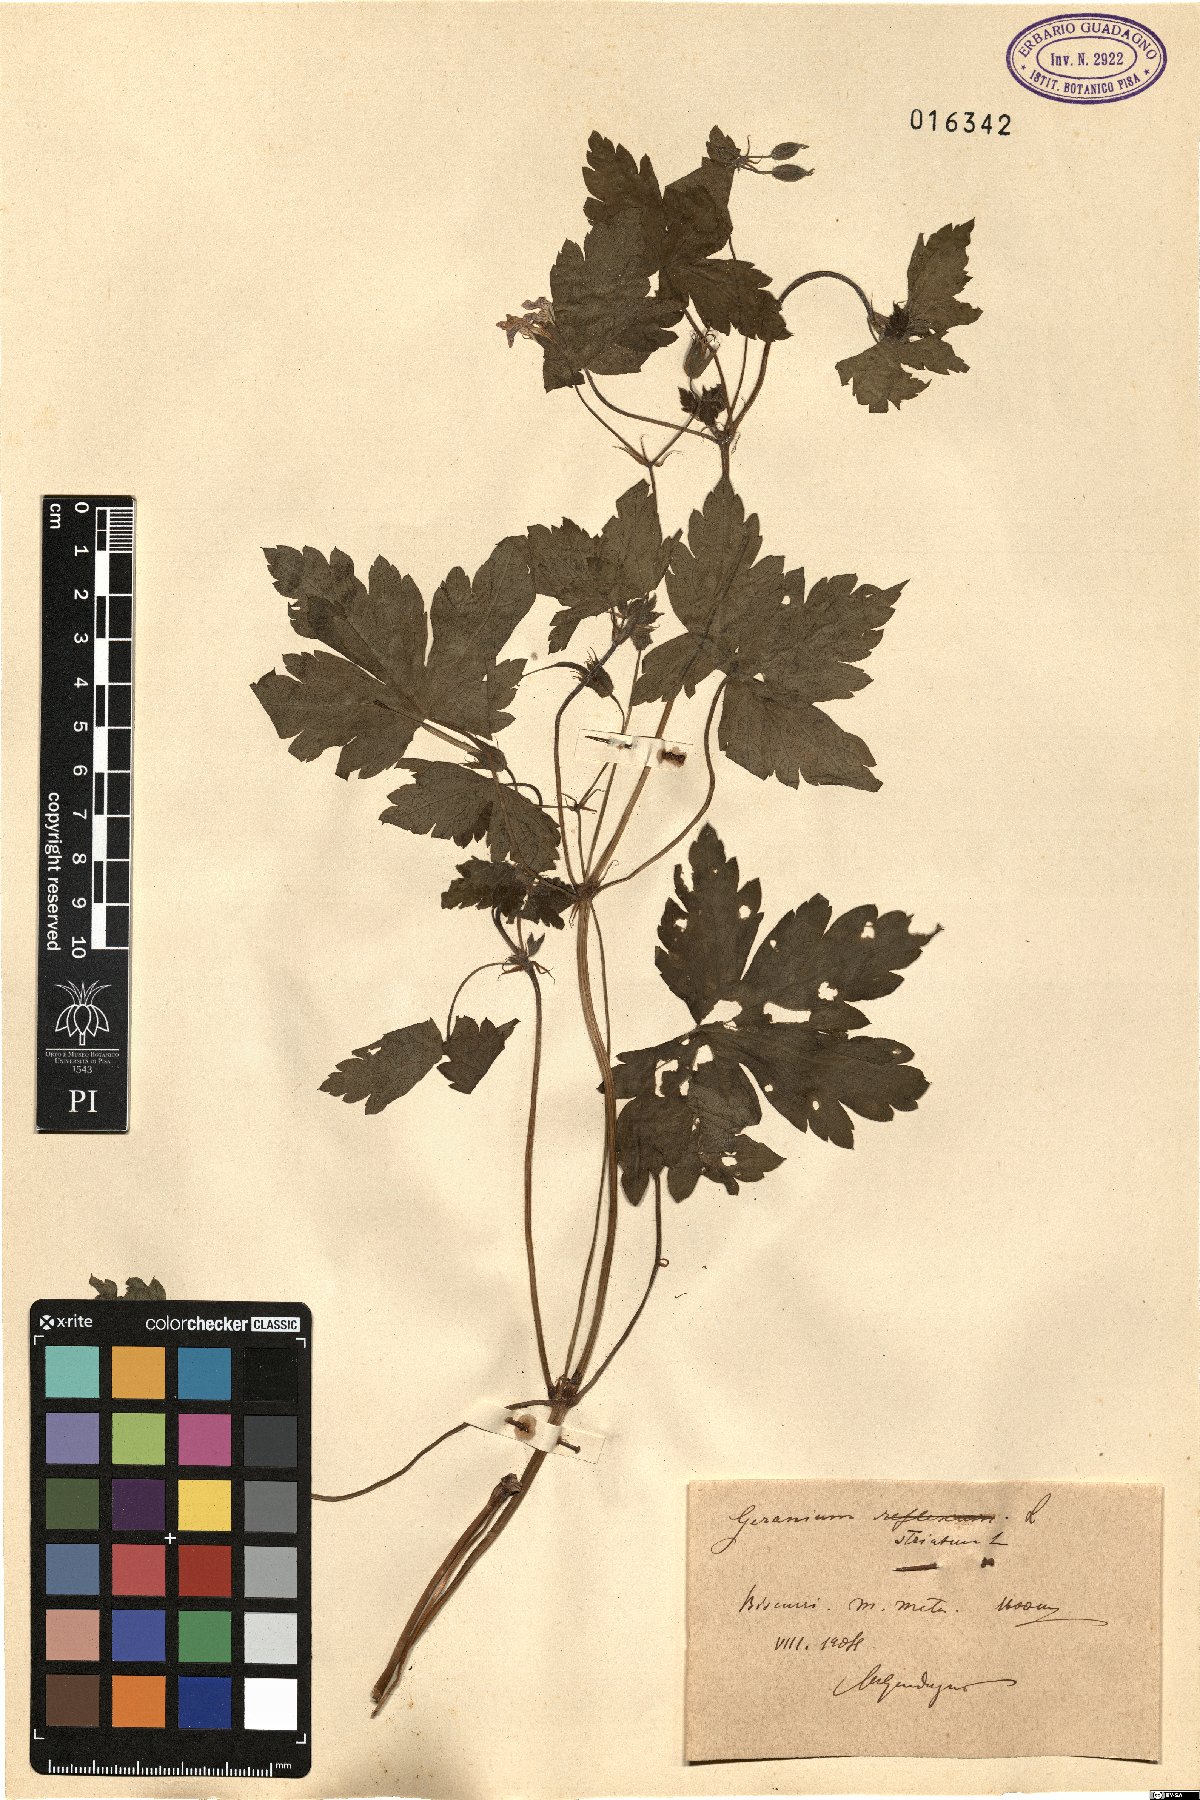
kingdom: Plantae
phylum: Tracheophyta
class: Magnoliopsida
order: Geraniales
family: Geraniaceae
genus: Geranium
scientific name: Geranium versicolor
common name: Pencilled crane's-bill
